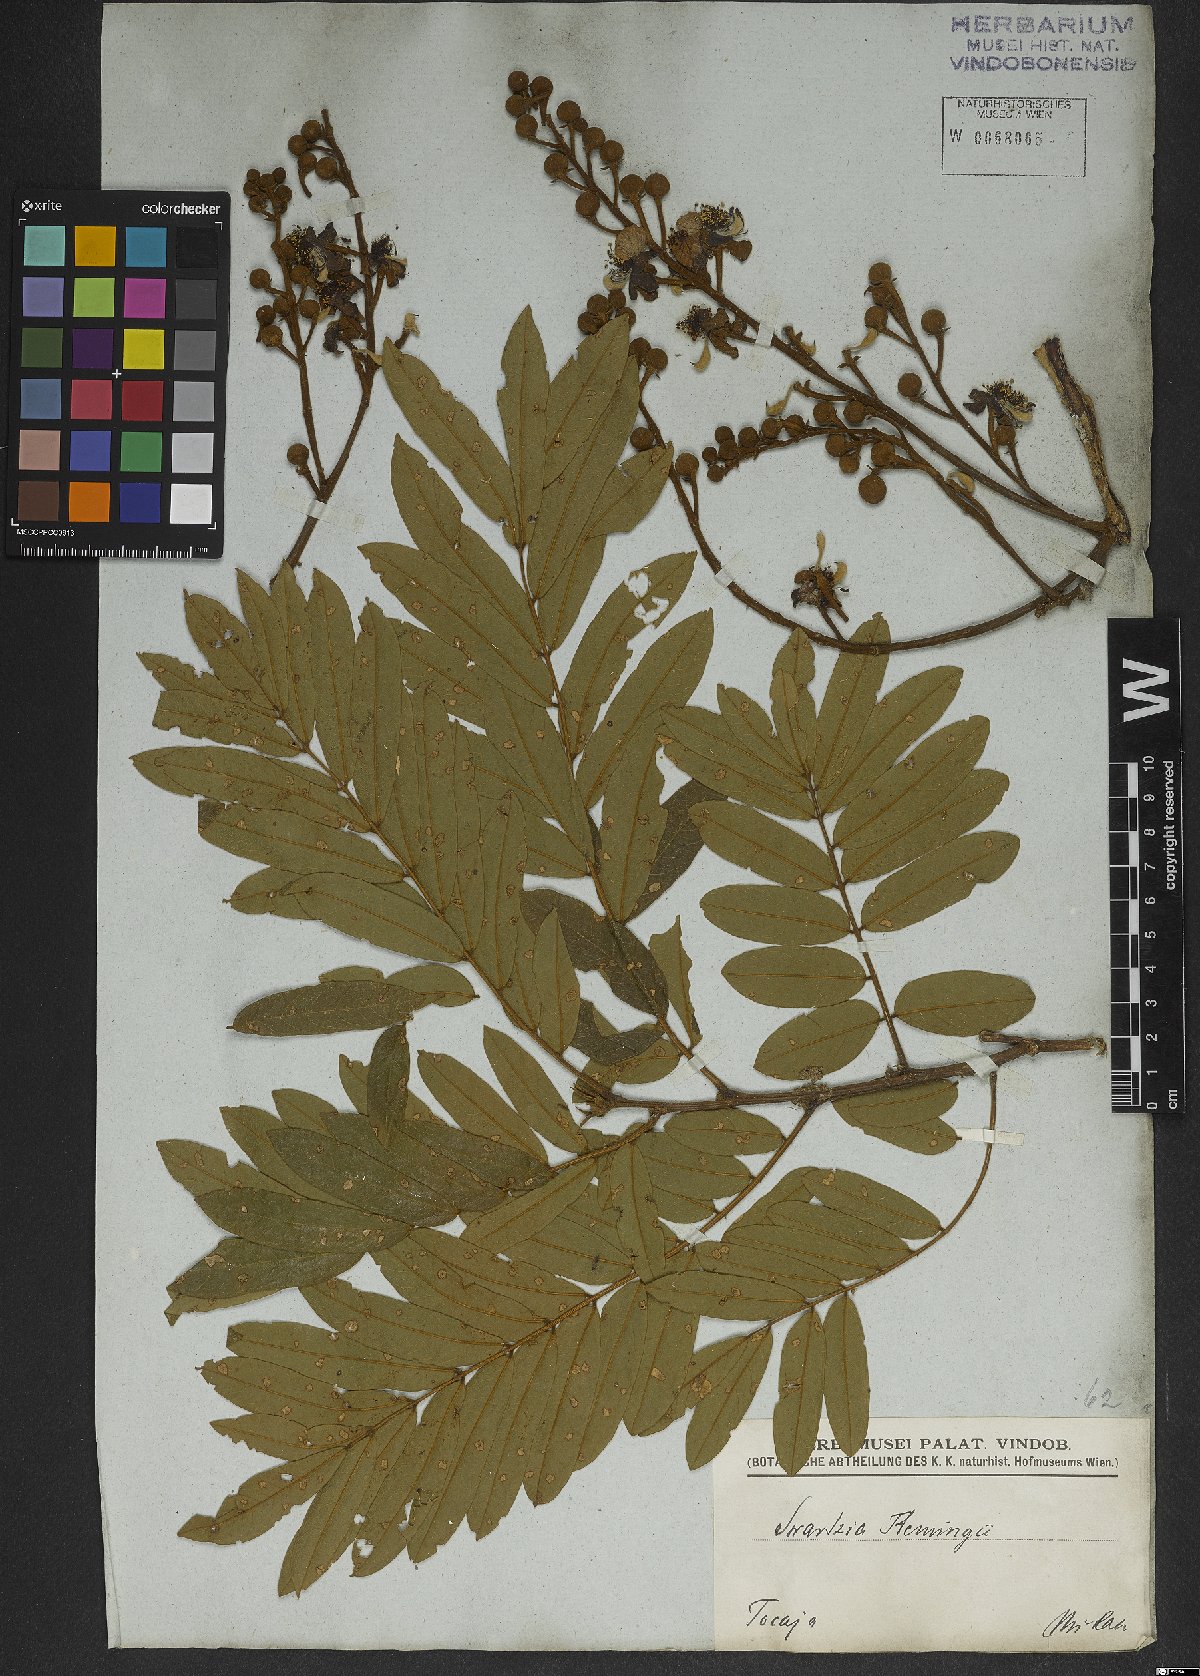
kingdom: Plantae
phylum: Tracheophyta
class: Magnoliopsida
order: Fabales
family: Fabaceae
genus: Swartzia
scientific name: Swartzia flaemingii
